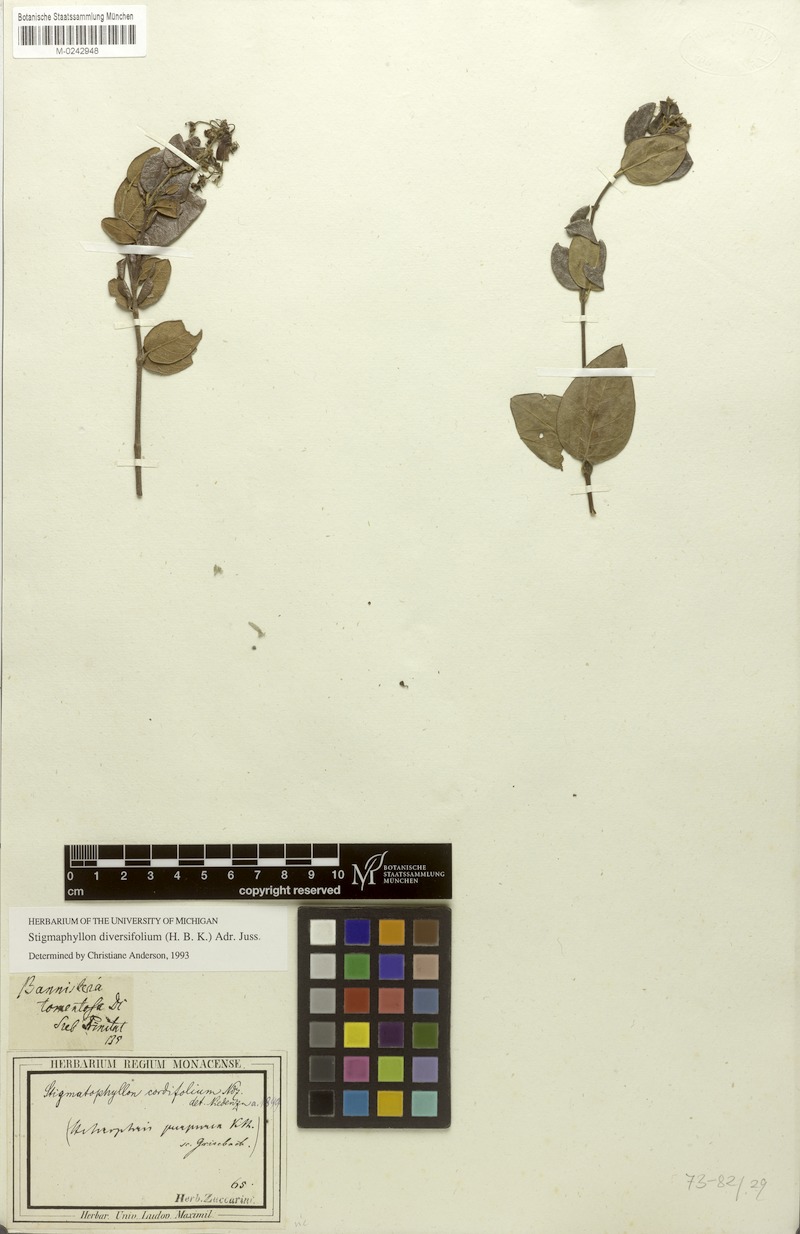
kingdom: Plantae
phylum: Tracheophyta
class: Magnoliopsida
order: Malpighiales
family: Malpighiaceae
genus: Stigmaphyllon
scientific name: Stigmaphyllon diversifolium
